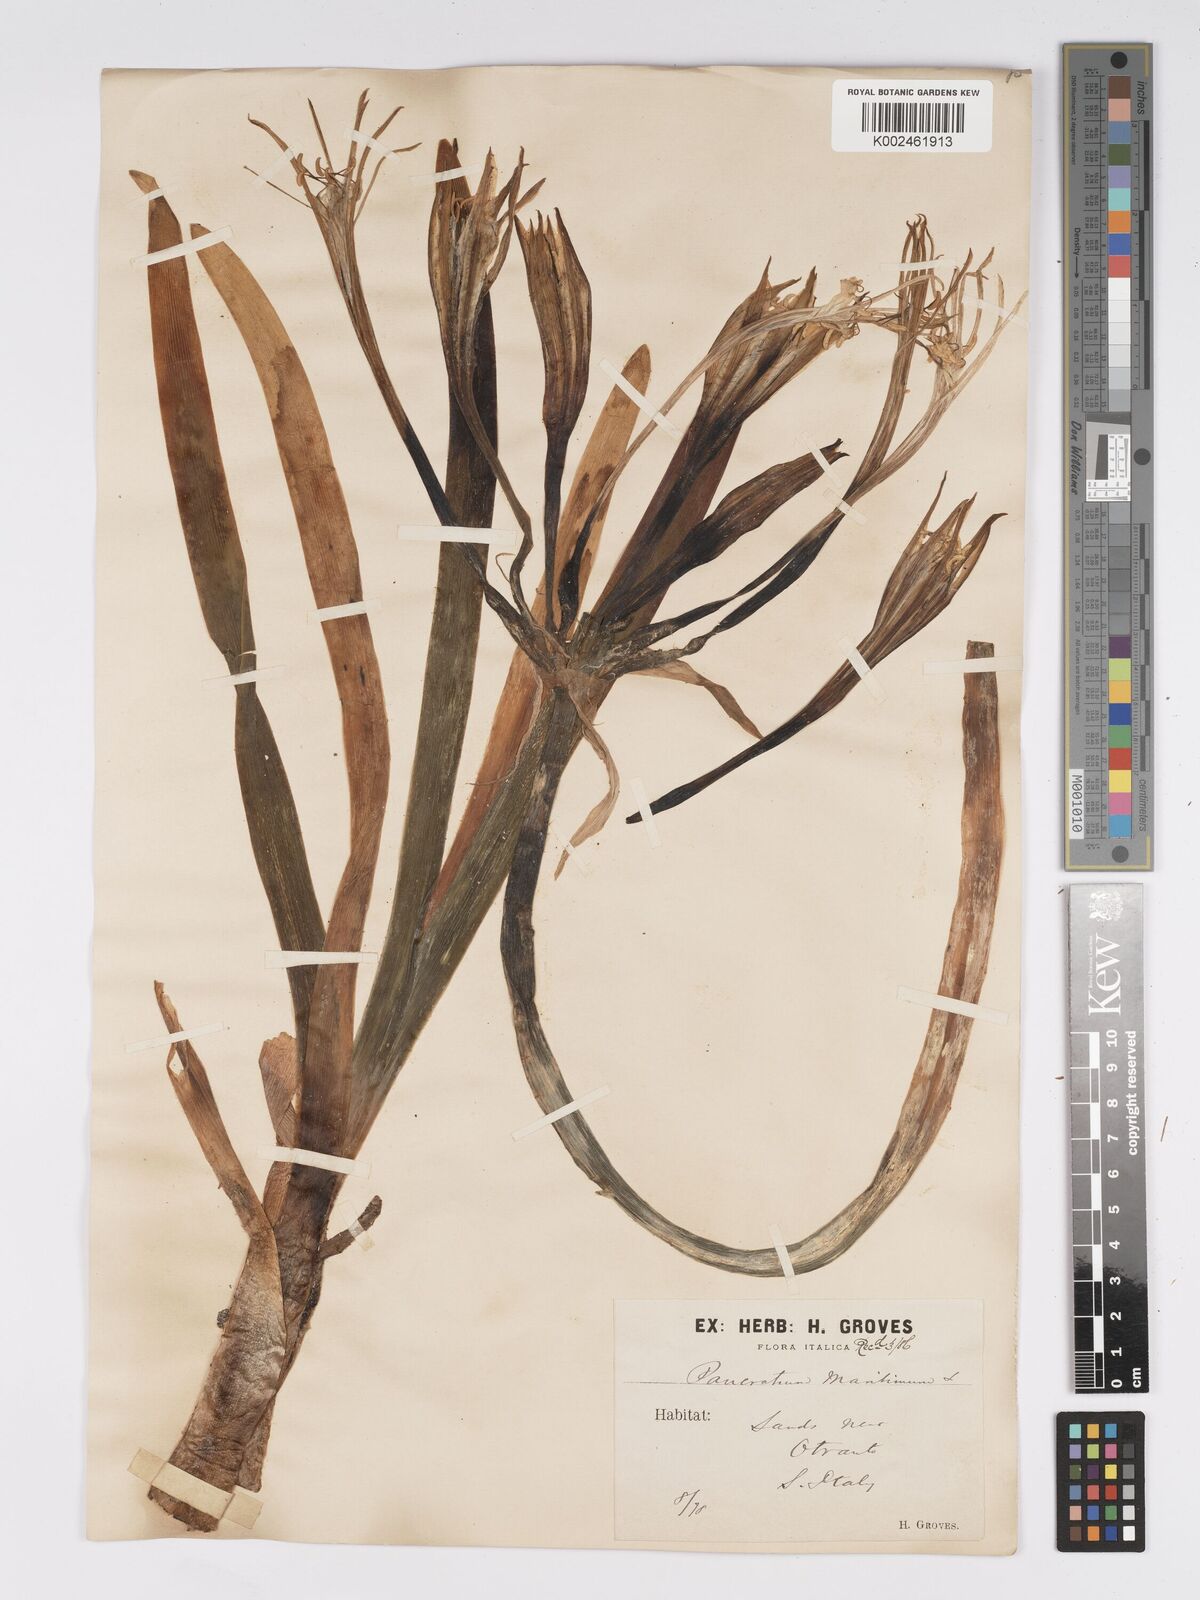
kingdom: Plantae
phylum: Tracheophyta
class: Liliopsida
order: Asparagales
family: Amaryllidaceae
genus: Pancratium
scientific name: Pancratium maritimum
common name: Sea-daffodil
